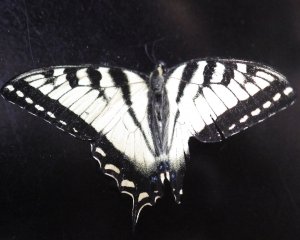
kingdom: Animalia
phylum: Arthropoda
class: Insecta
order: Lepidoptera
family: Papilionidae
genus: Pterourus
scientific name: Pterourus canadensis
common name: Canadian Tiger Swallowtail
